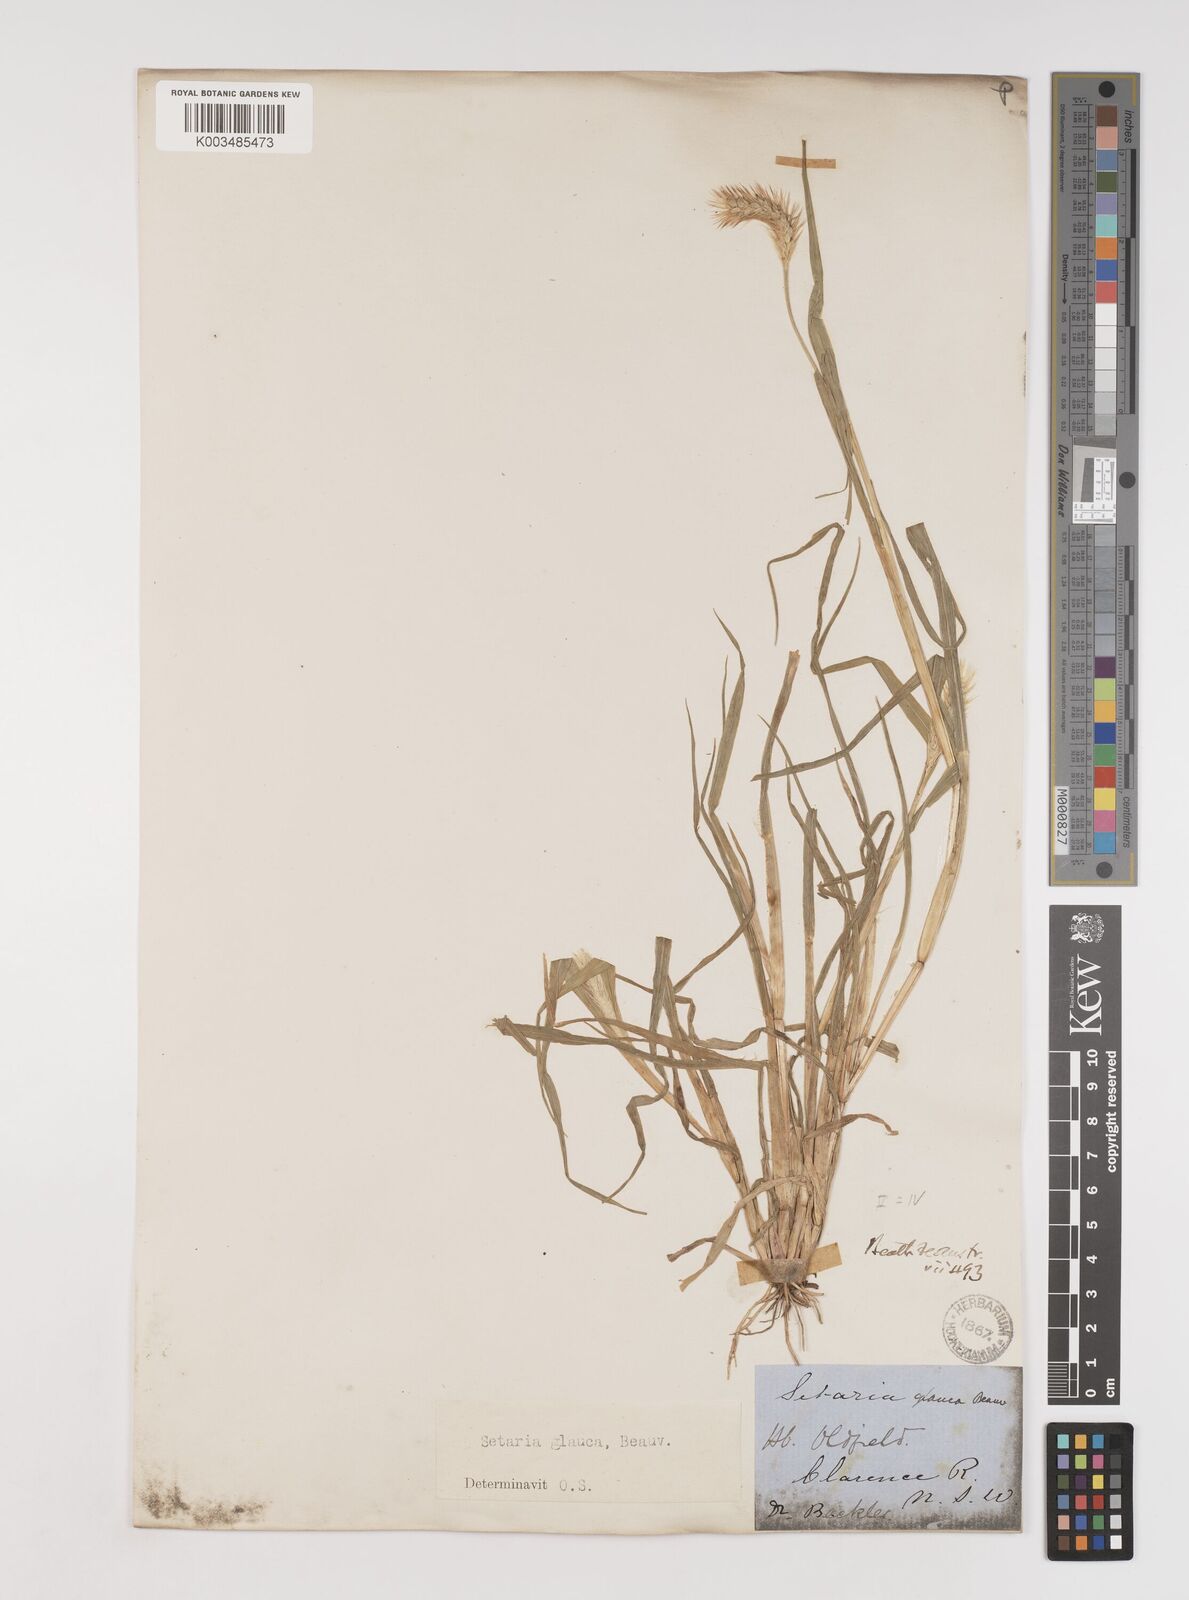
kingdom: Plantae
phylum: Tracheophyta
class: Liliopsida
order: Poales
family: Poaceae
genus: Setaria
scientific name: Setaria pumila
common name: Yellow bristle-grass
